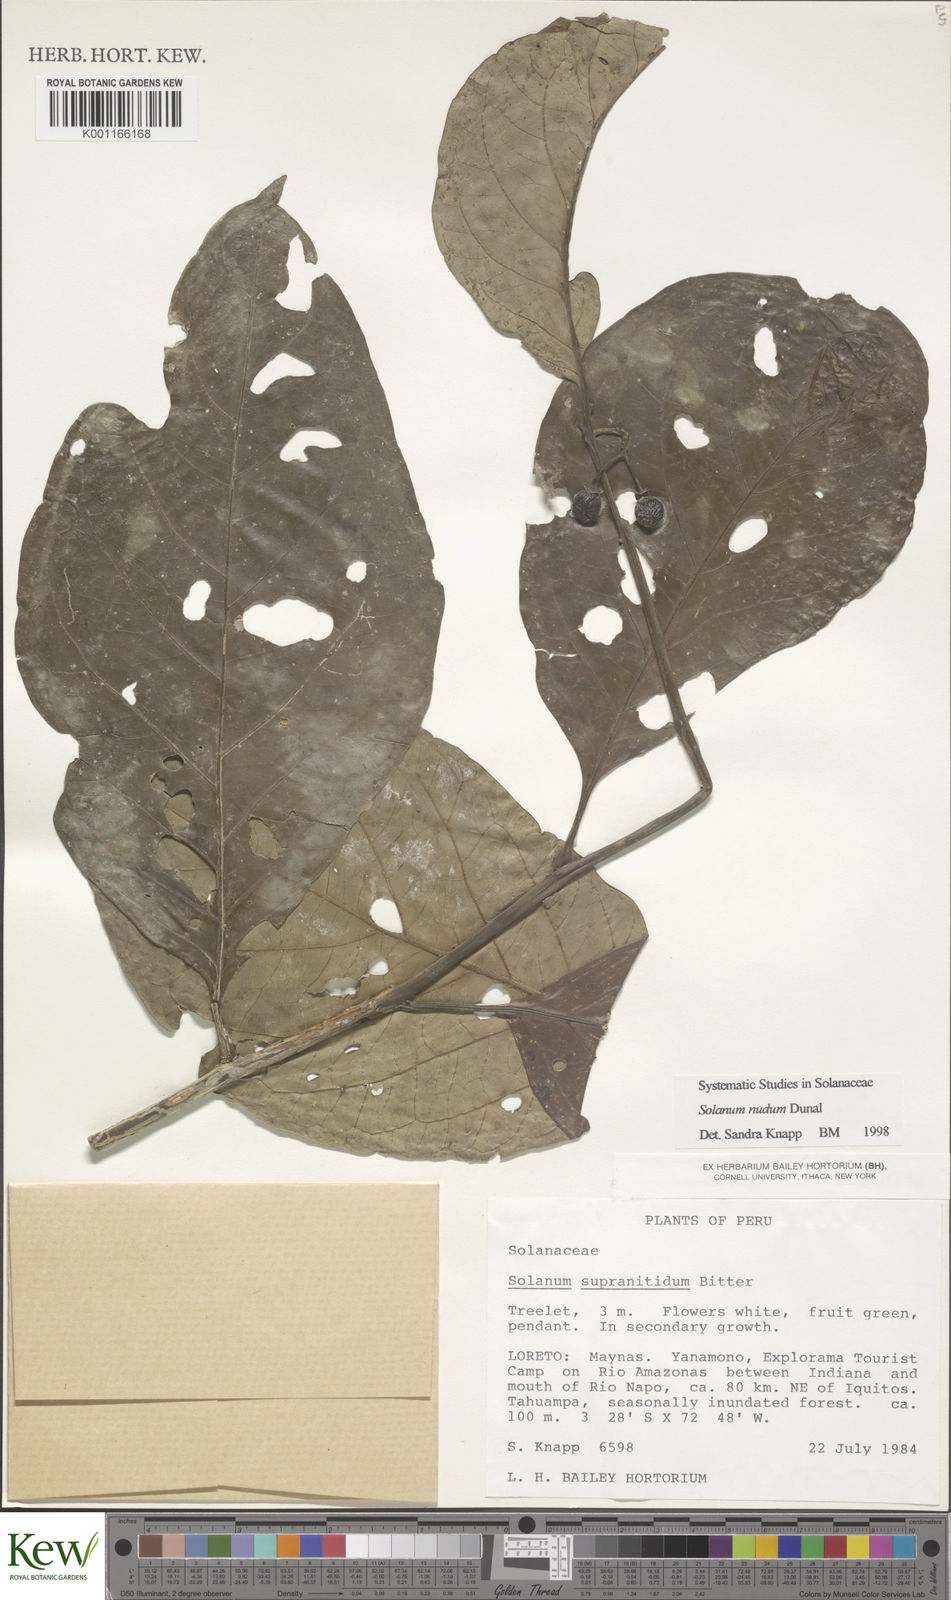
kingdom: Plantae
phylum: Tracheophyta
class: Magnoliopsida
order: Solanales
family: Solanaceae
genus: Solanum
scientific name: Solanum nudum
